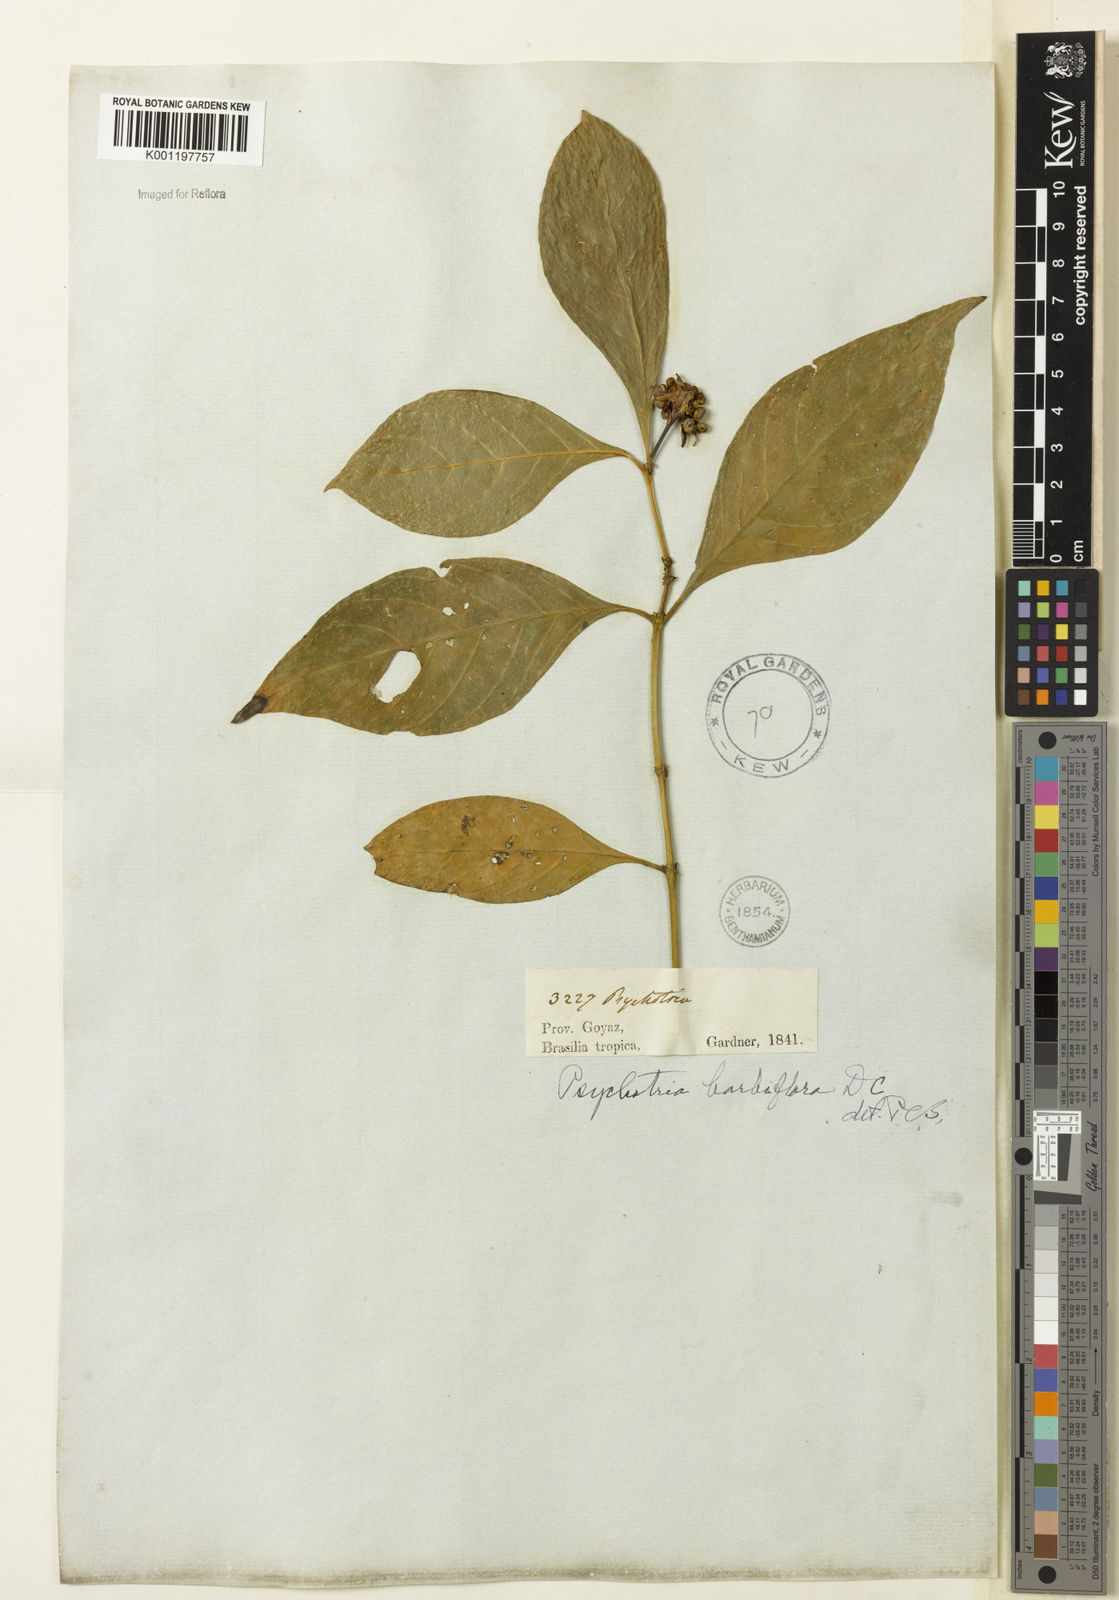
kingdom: Plantae
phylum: Tracheophyta
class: Magnoliopsida
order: Gentianales
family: Rubiaceae
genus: Palicourea
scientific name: Palicourea hoffmannseggiana
